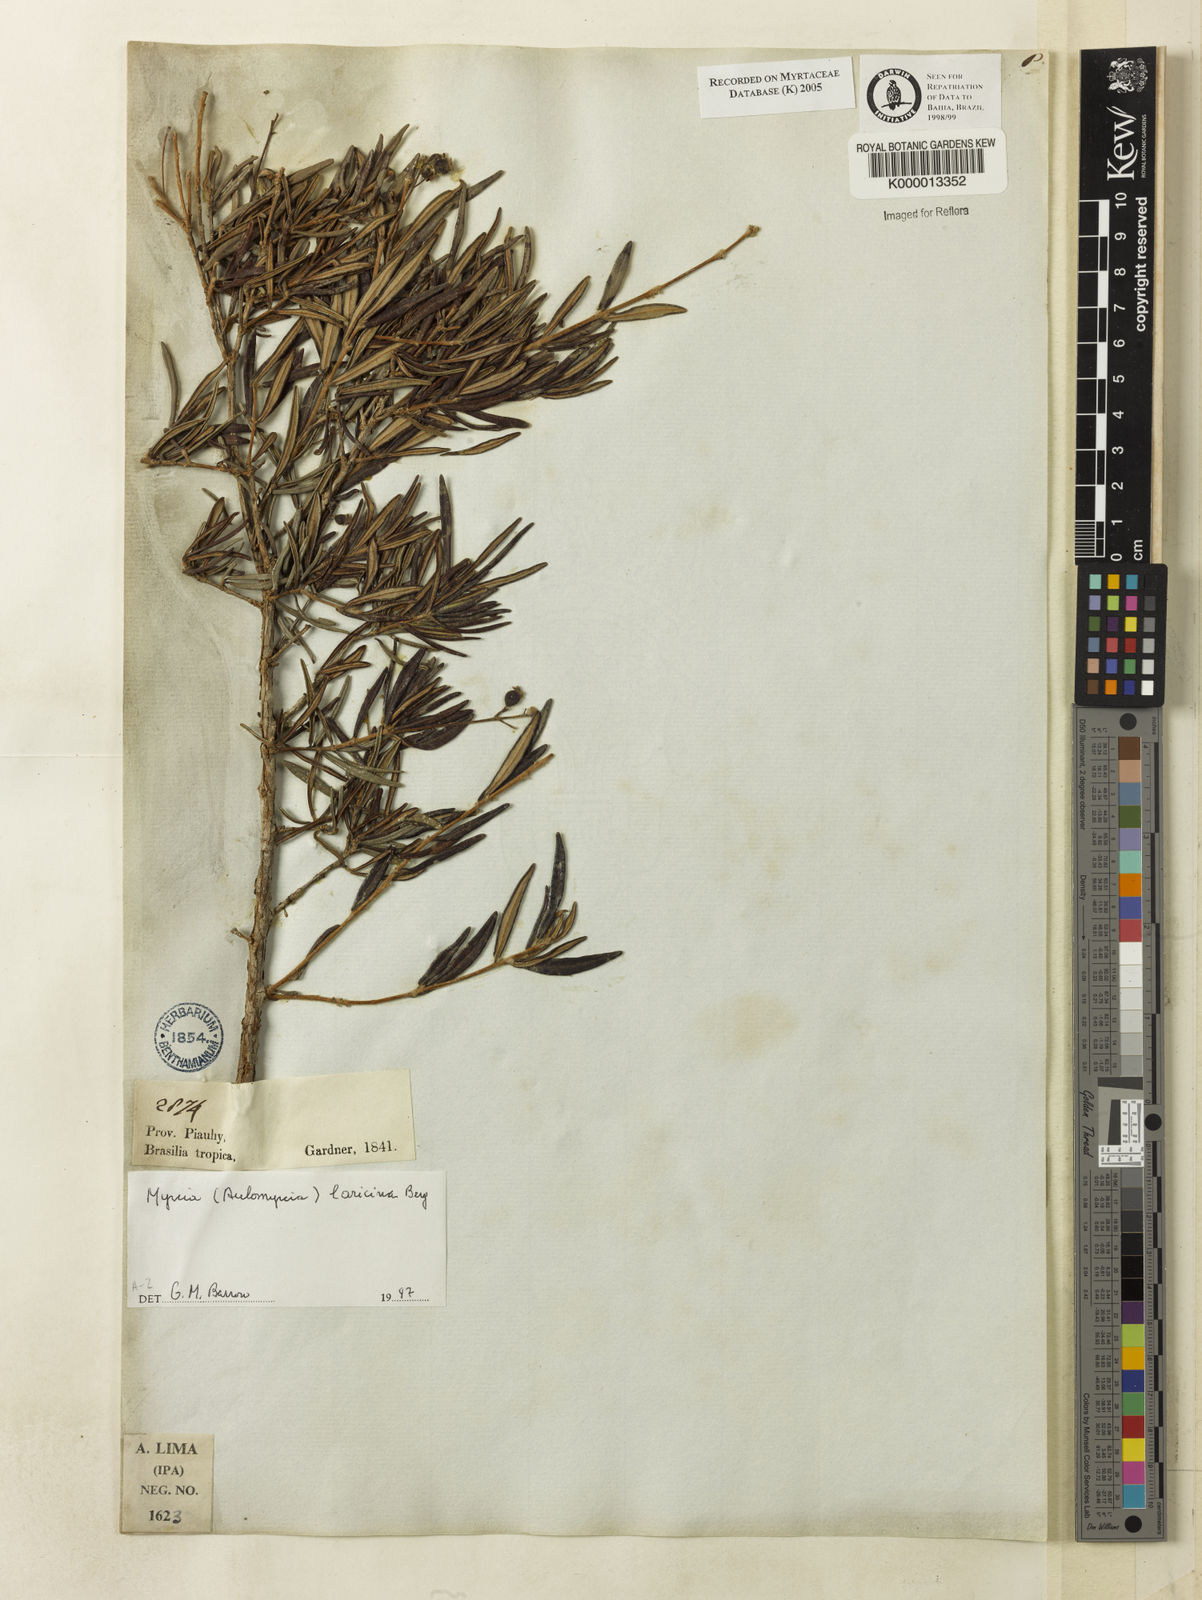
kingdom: Plantae
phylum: Tracheophyta
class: Magnoliopsida
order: Myrtales
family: Myrtaceae
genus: Myrcia
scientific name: Myrcia
